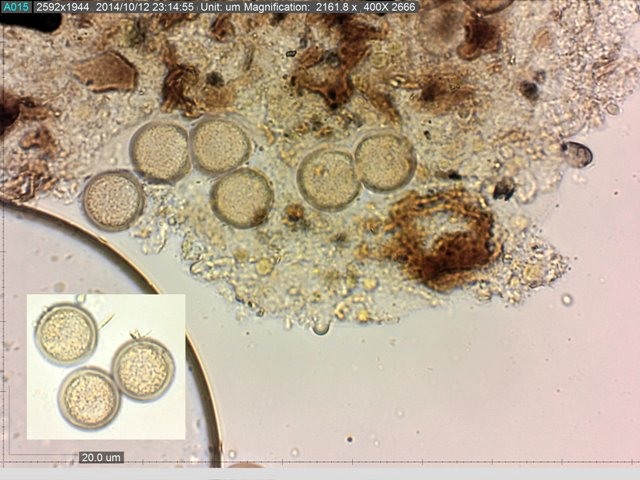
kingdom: Protozoa
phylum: Mycetozoa
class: Myxomycetes
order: Cribrariales
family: Liceaceae
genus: Licea
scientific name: Licea microscopica
